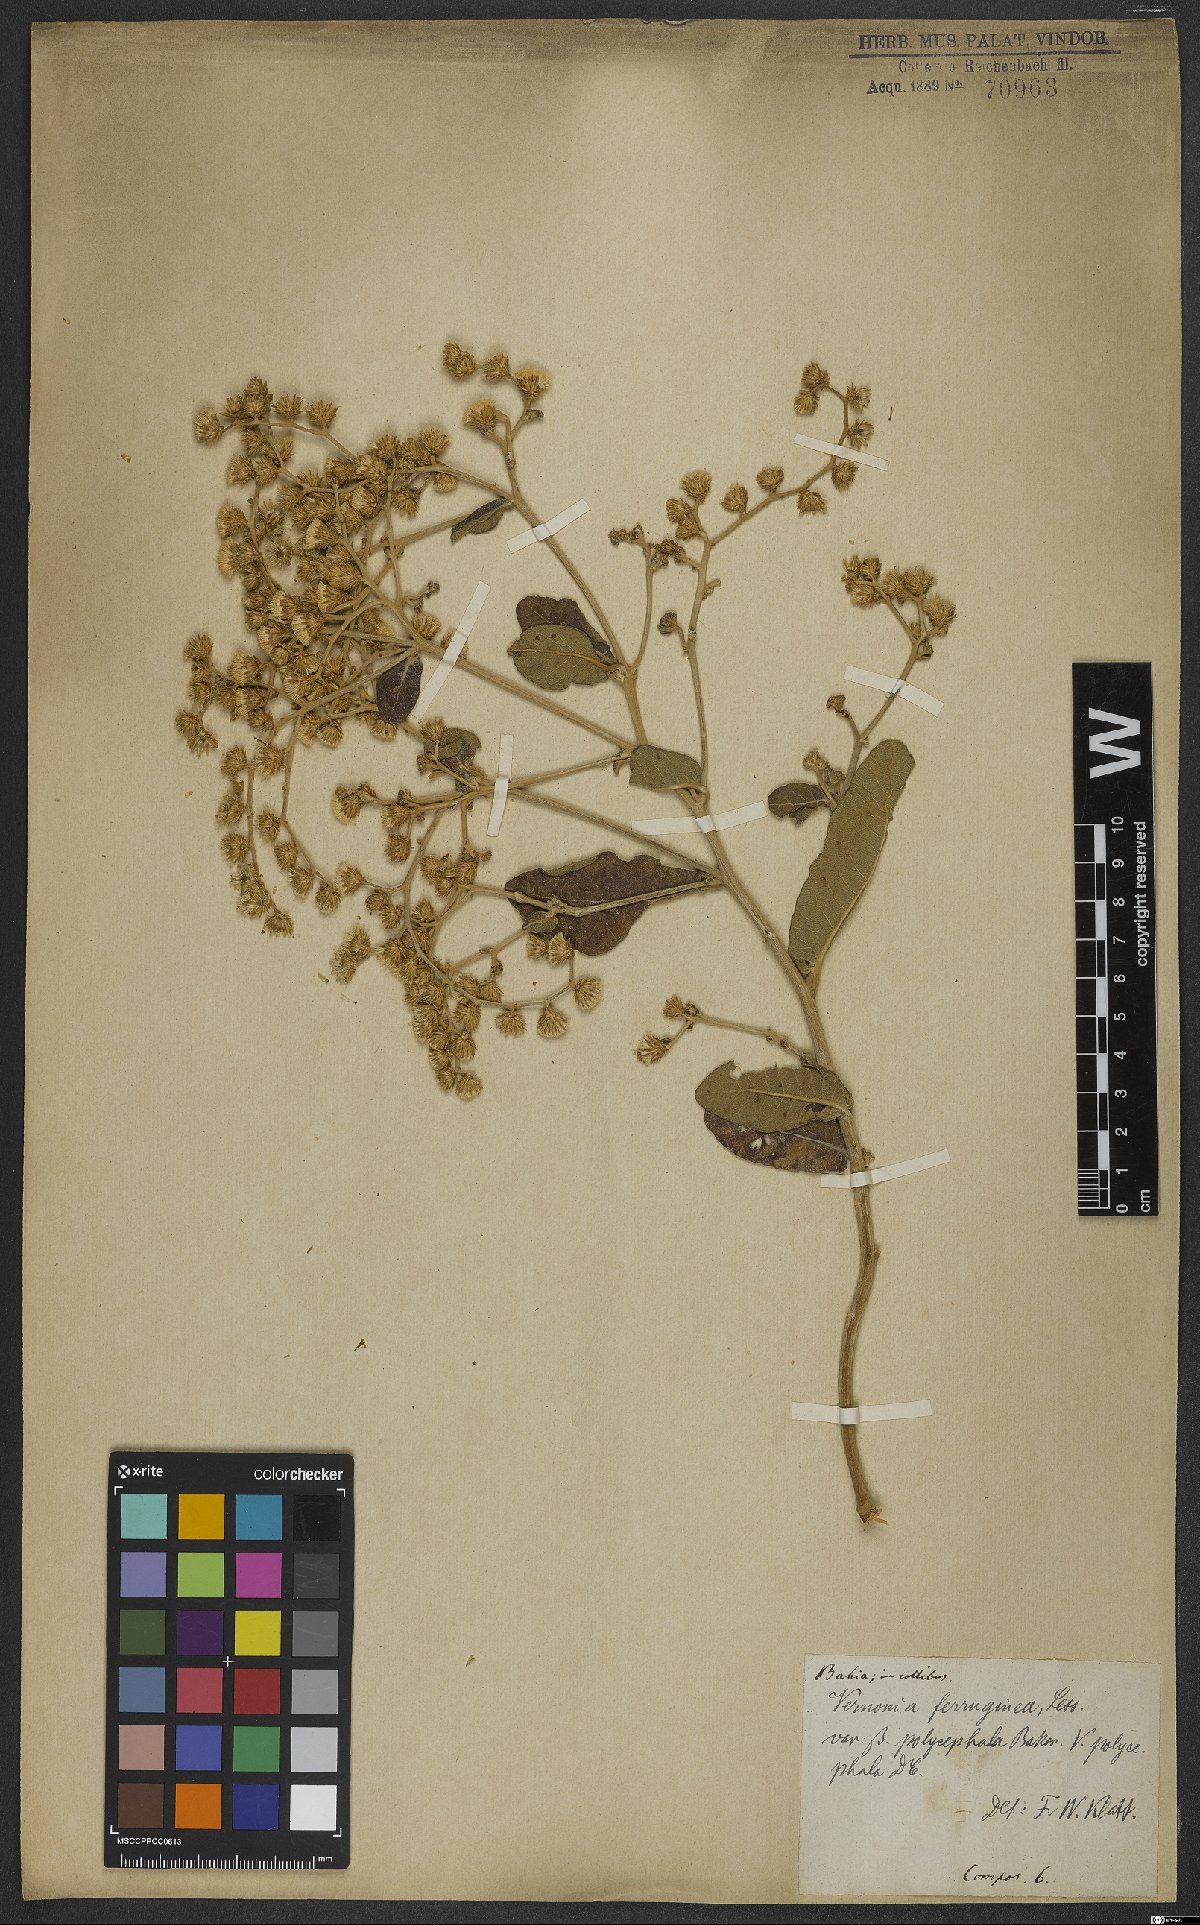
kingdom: Plantae
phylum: Tracheophyta
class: Magnoliopsida
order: Asterales
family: Asteraceae
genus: Vernonanthura
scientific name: Vernonanthura ferruginea
